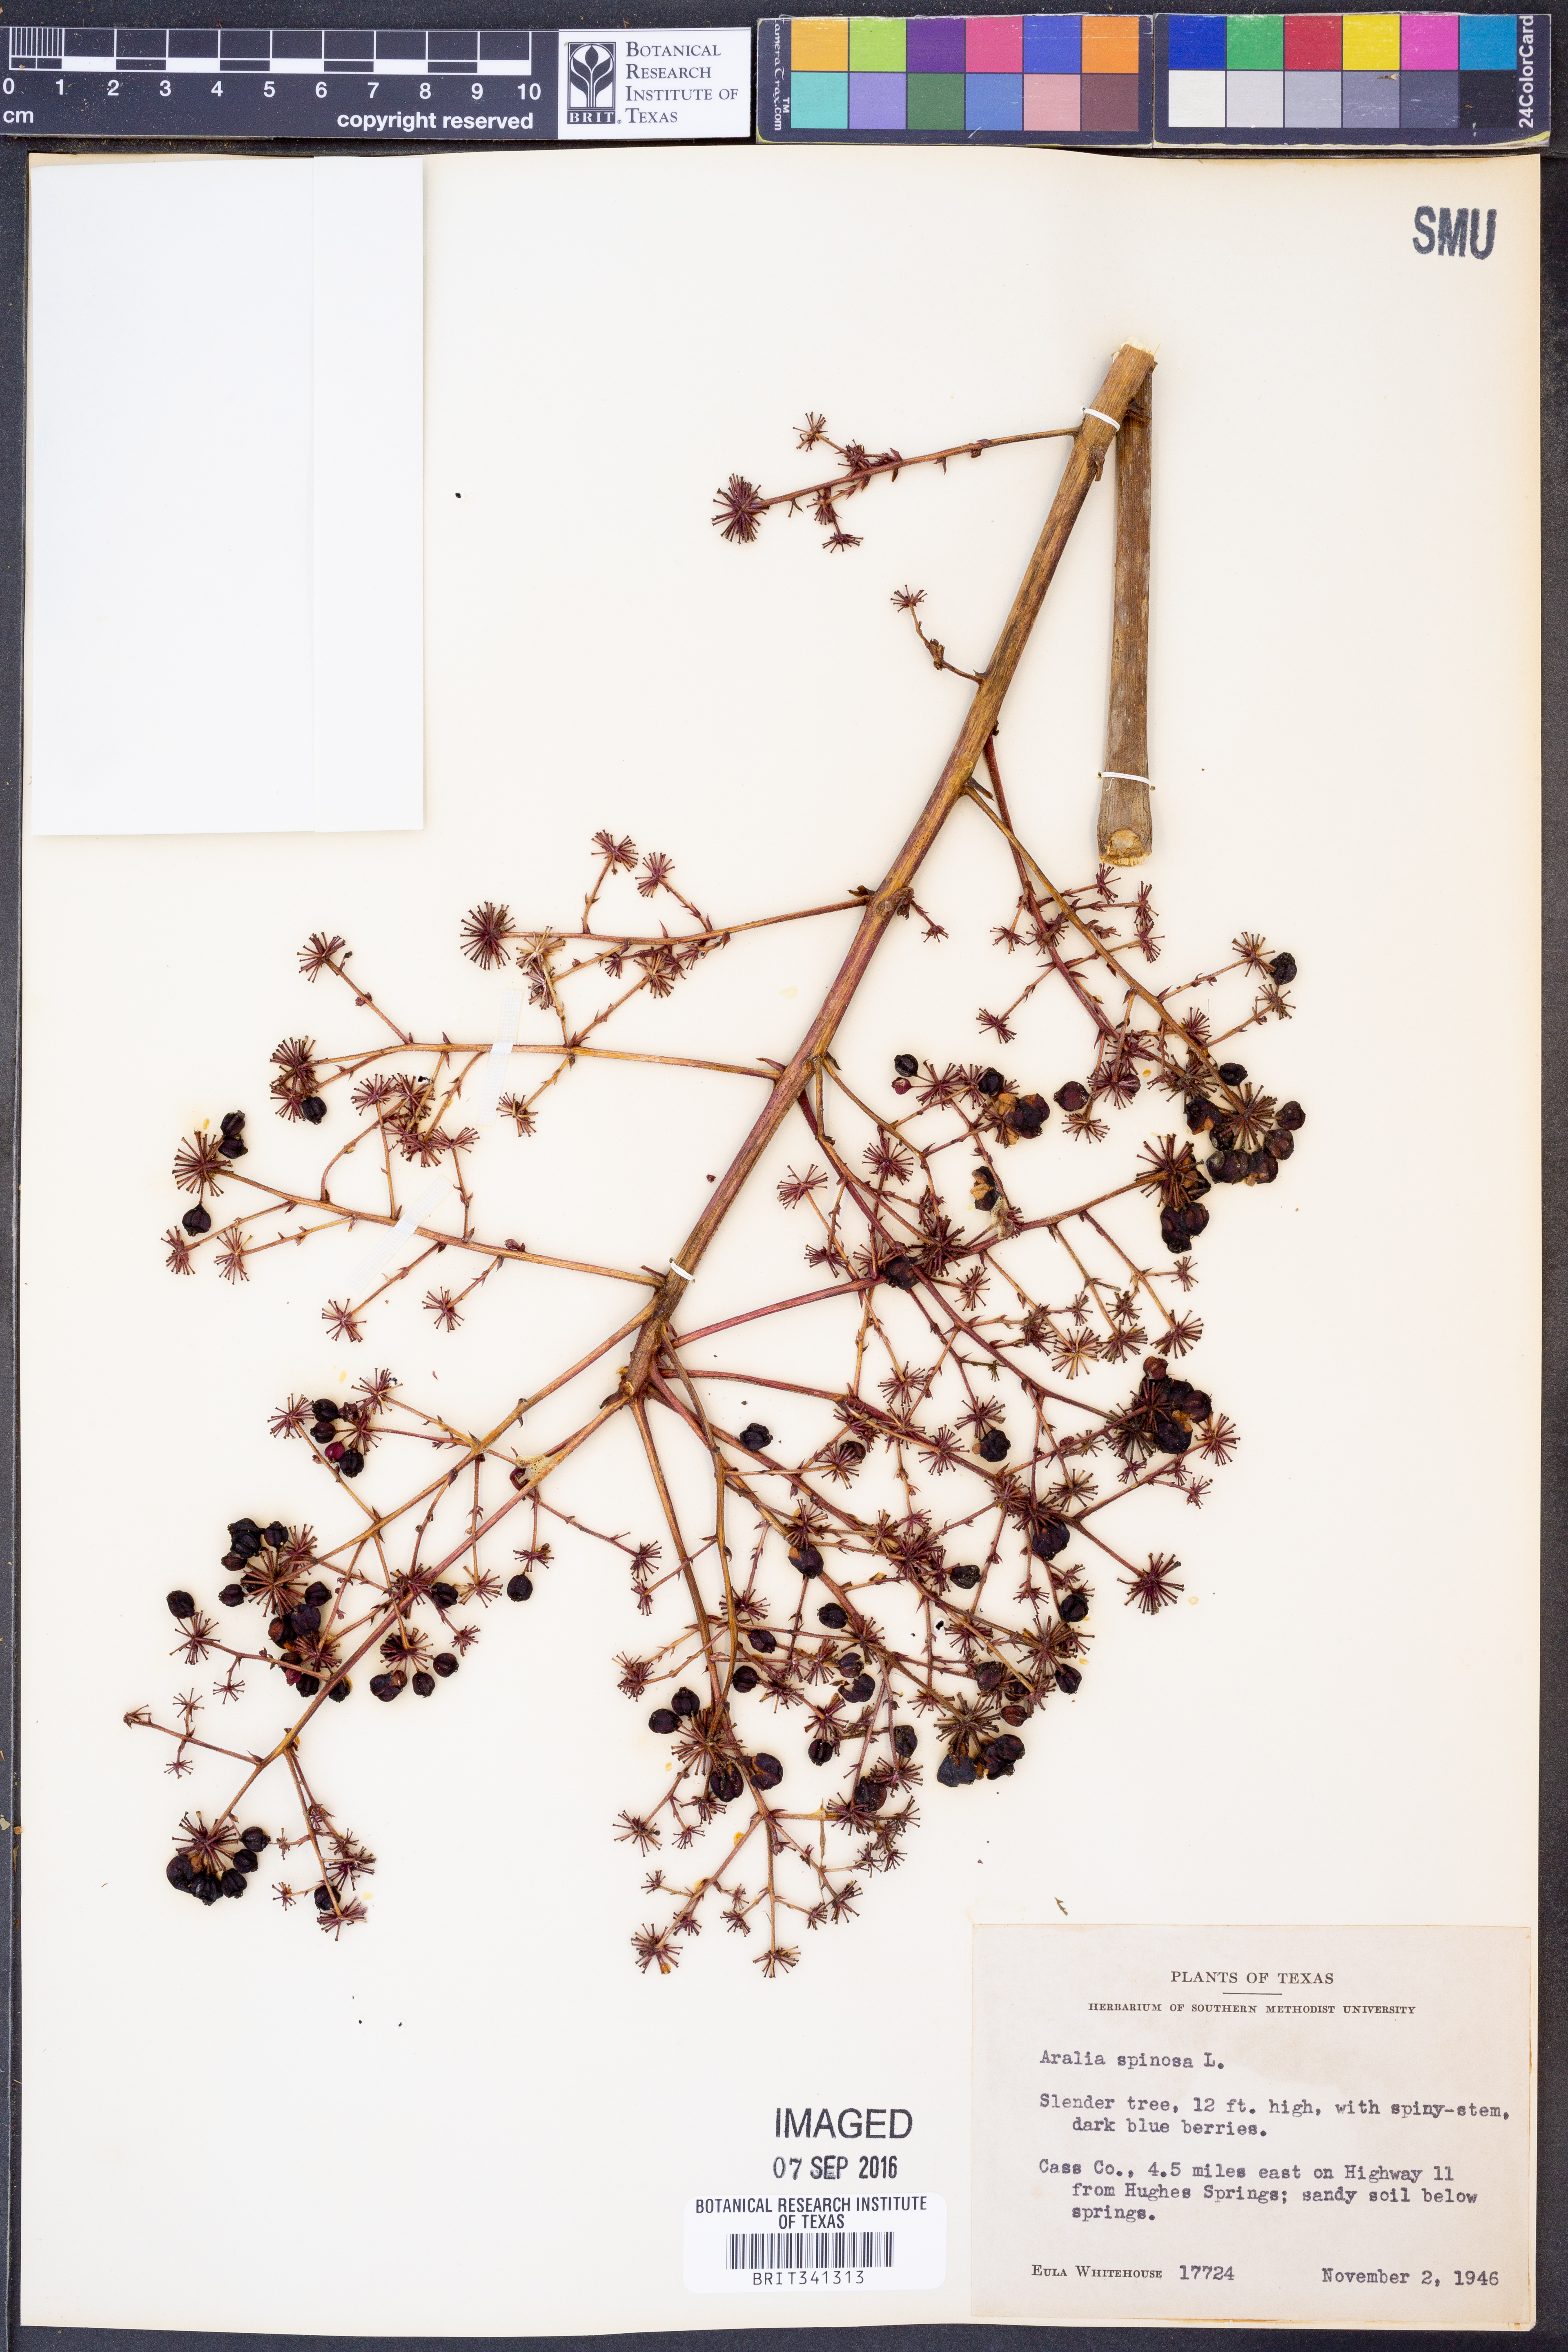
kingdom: Plantae
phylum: Tracheophyta
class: Magnoliopsida
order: Apiales
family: Araliaceae
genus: Aralia
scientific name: Aralia spinosa
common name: Hercules'-club
